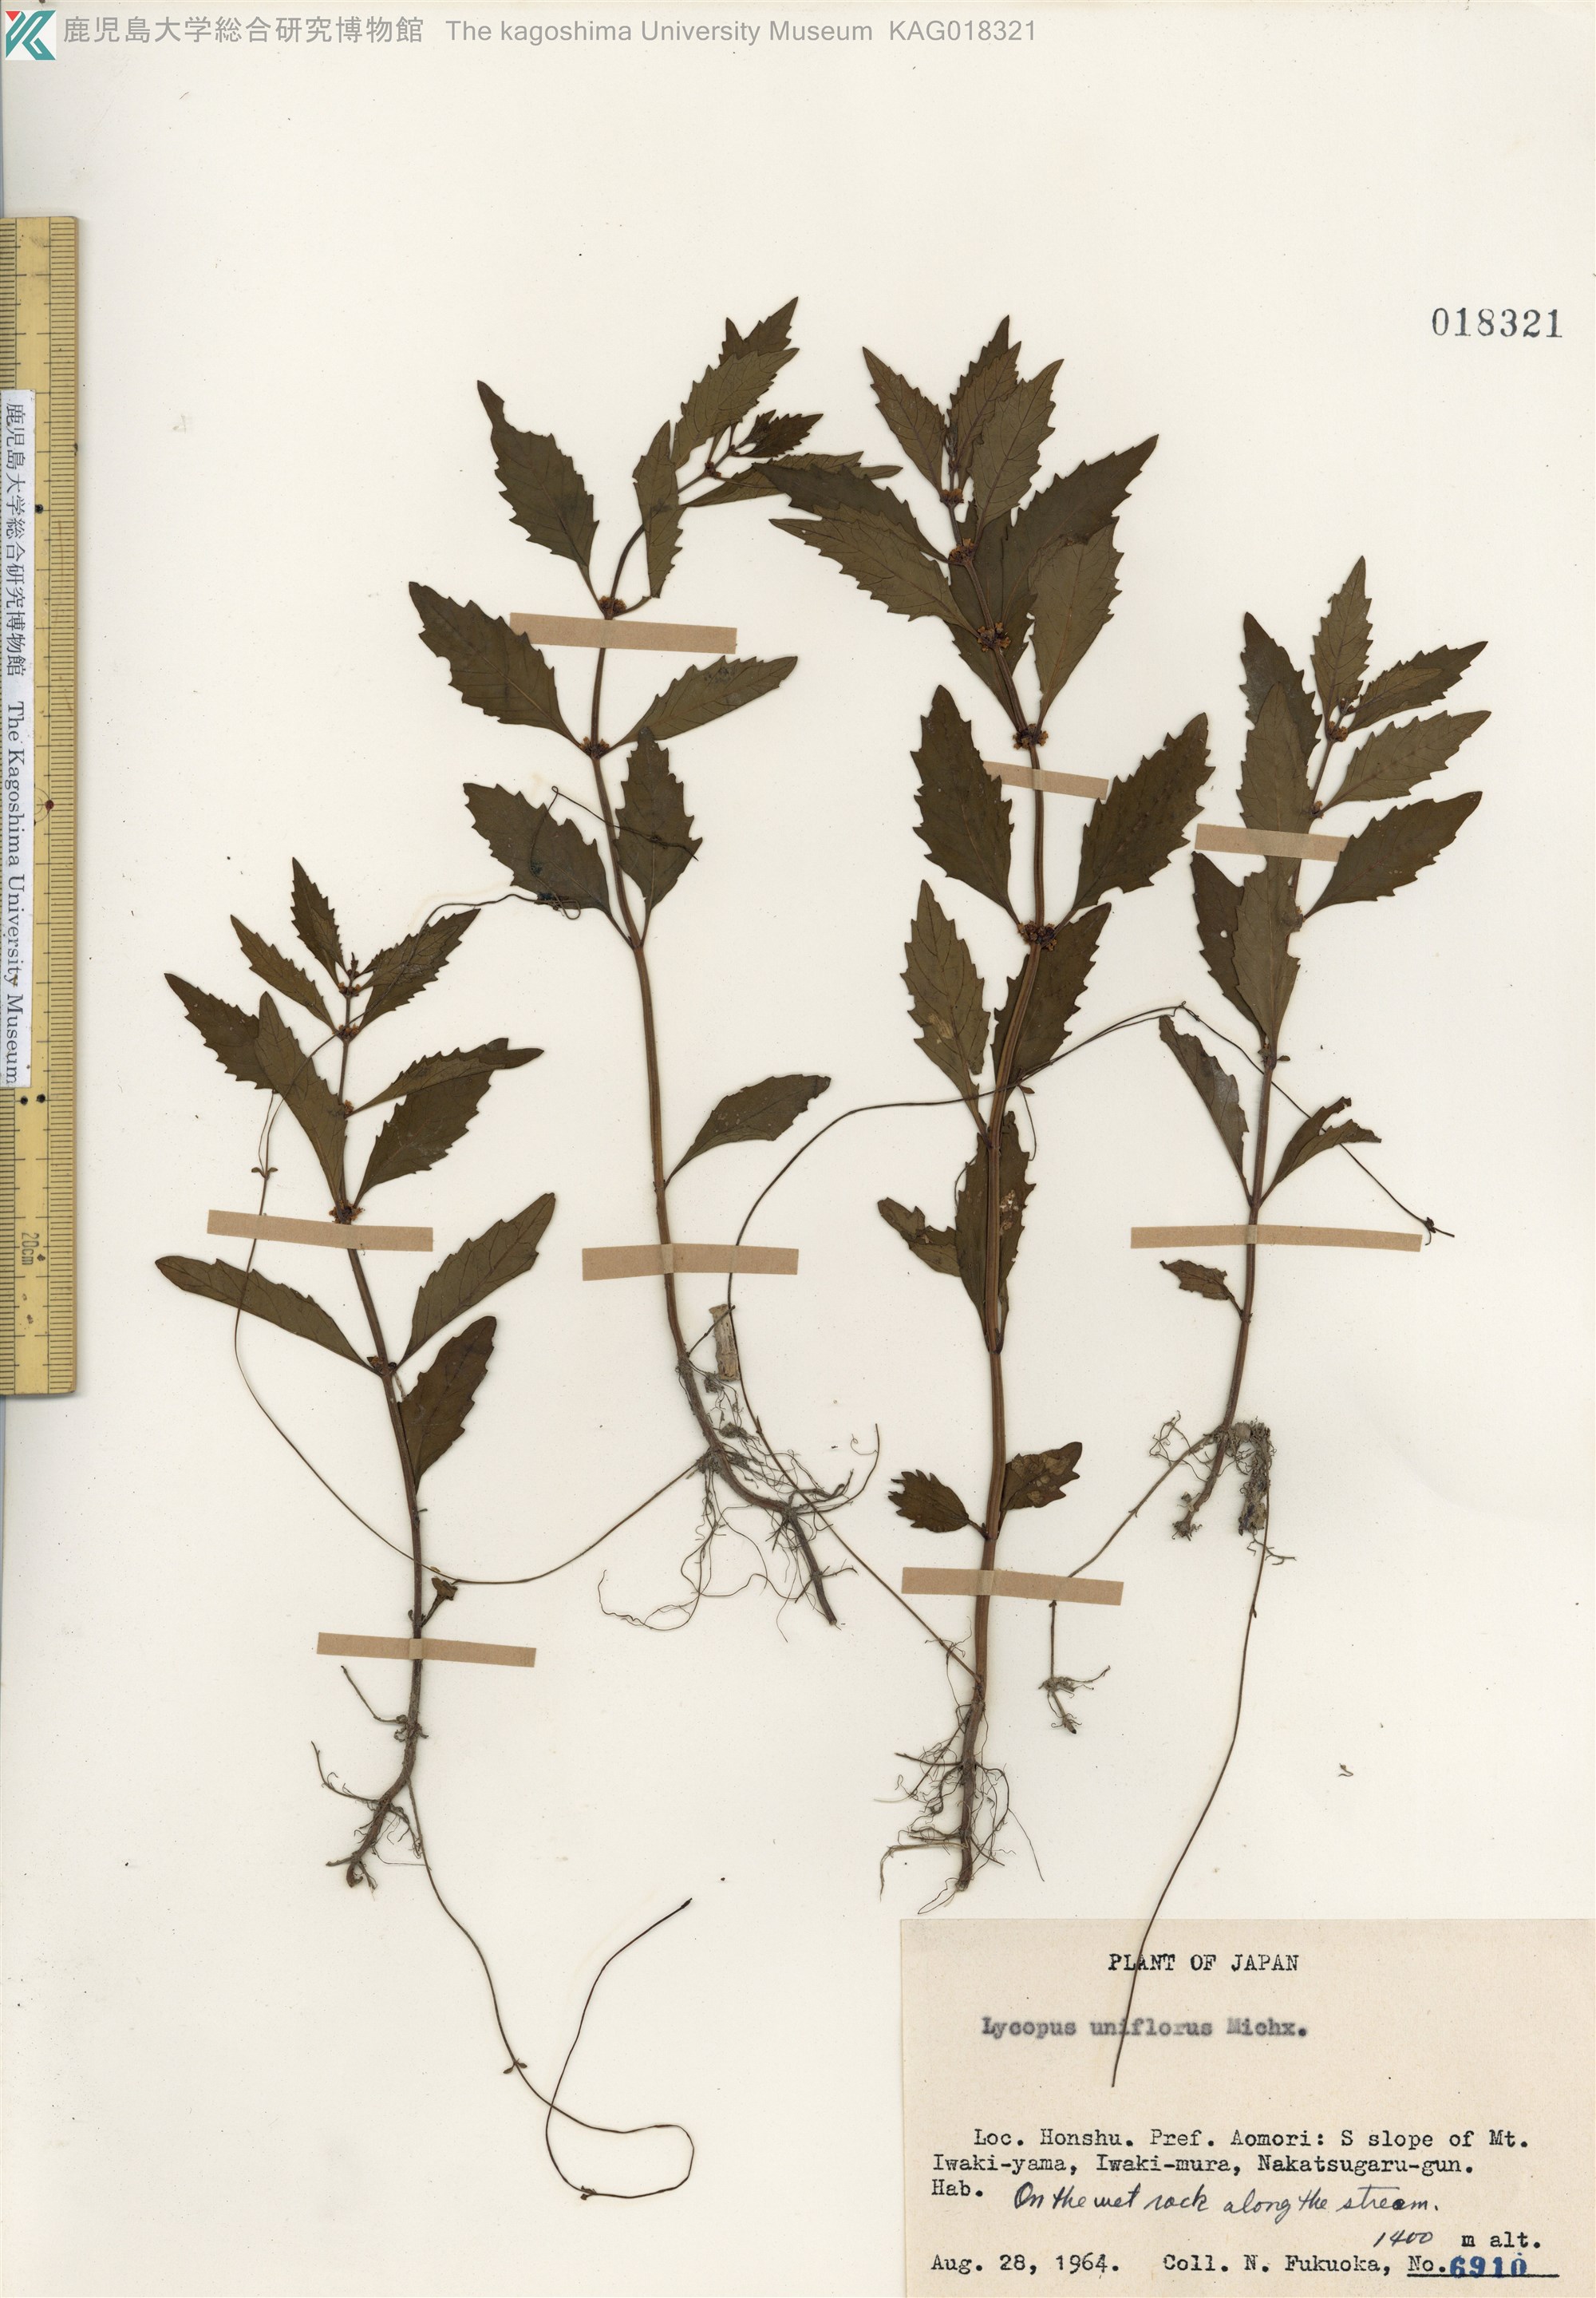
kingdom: Plantae
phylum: Tracheophyta
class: Magnoliopsida
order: Lamiales
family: Lamiaceae
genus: Lycopus
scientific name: Lycopus uniflorus
